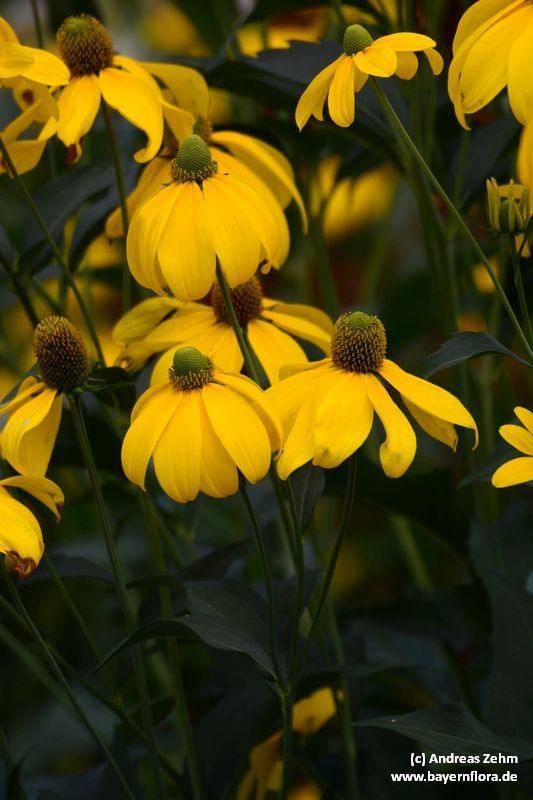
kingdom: Plantae
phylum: Tracheophyta
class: Magnoliopsida
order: Asterales
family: Asteraceae
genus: Rudbeckia
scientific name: Rudbeckia laciniata
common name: Coneflower
